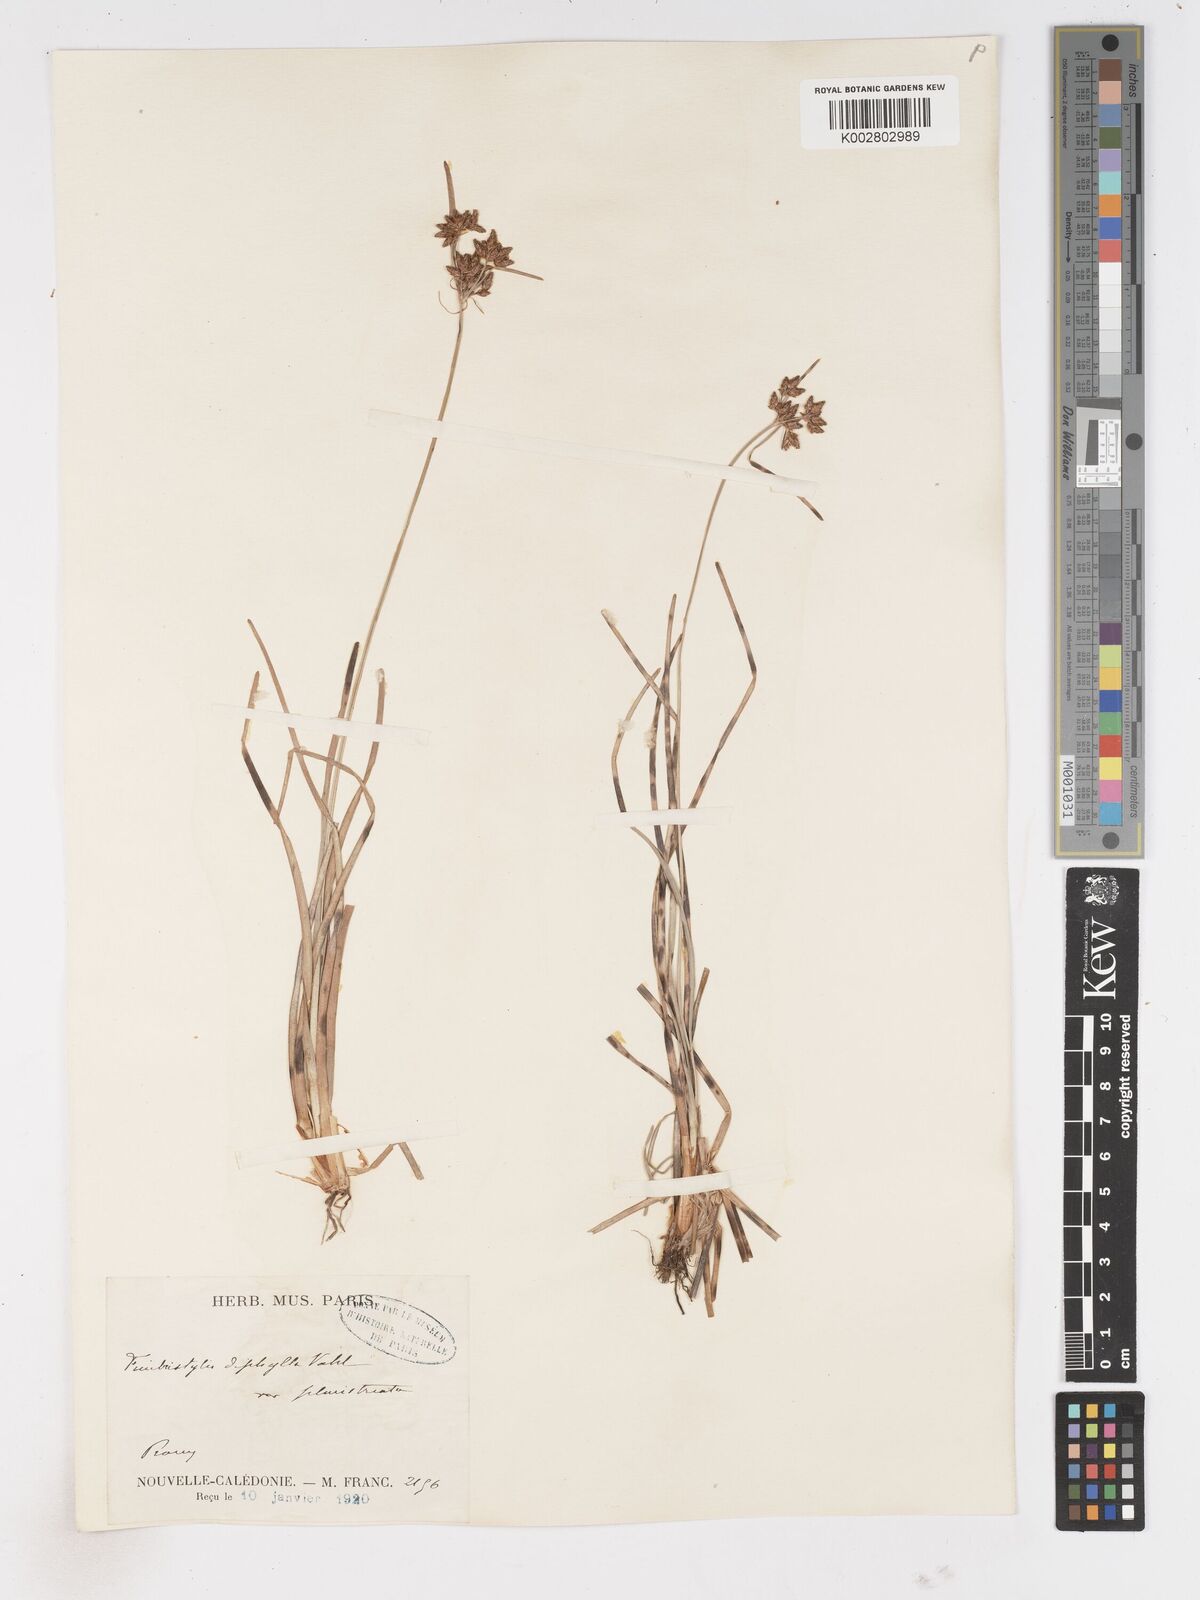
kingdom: Plantae
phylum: Tracheophyta
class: Liliopsida
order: Poales
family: Cyperaceae
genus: Fimbristylis
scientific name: Fimbristylis dichotoma
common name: Forked fimbry
